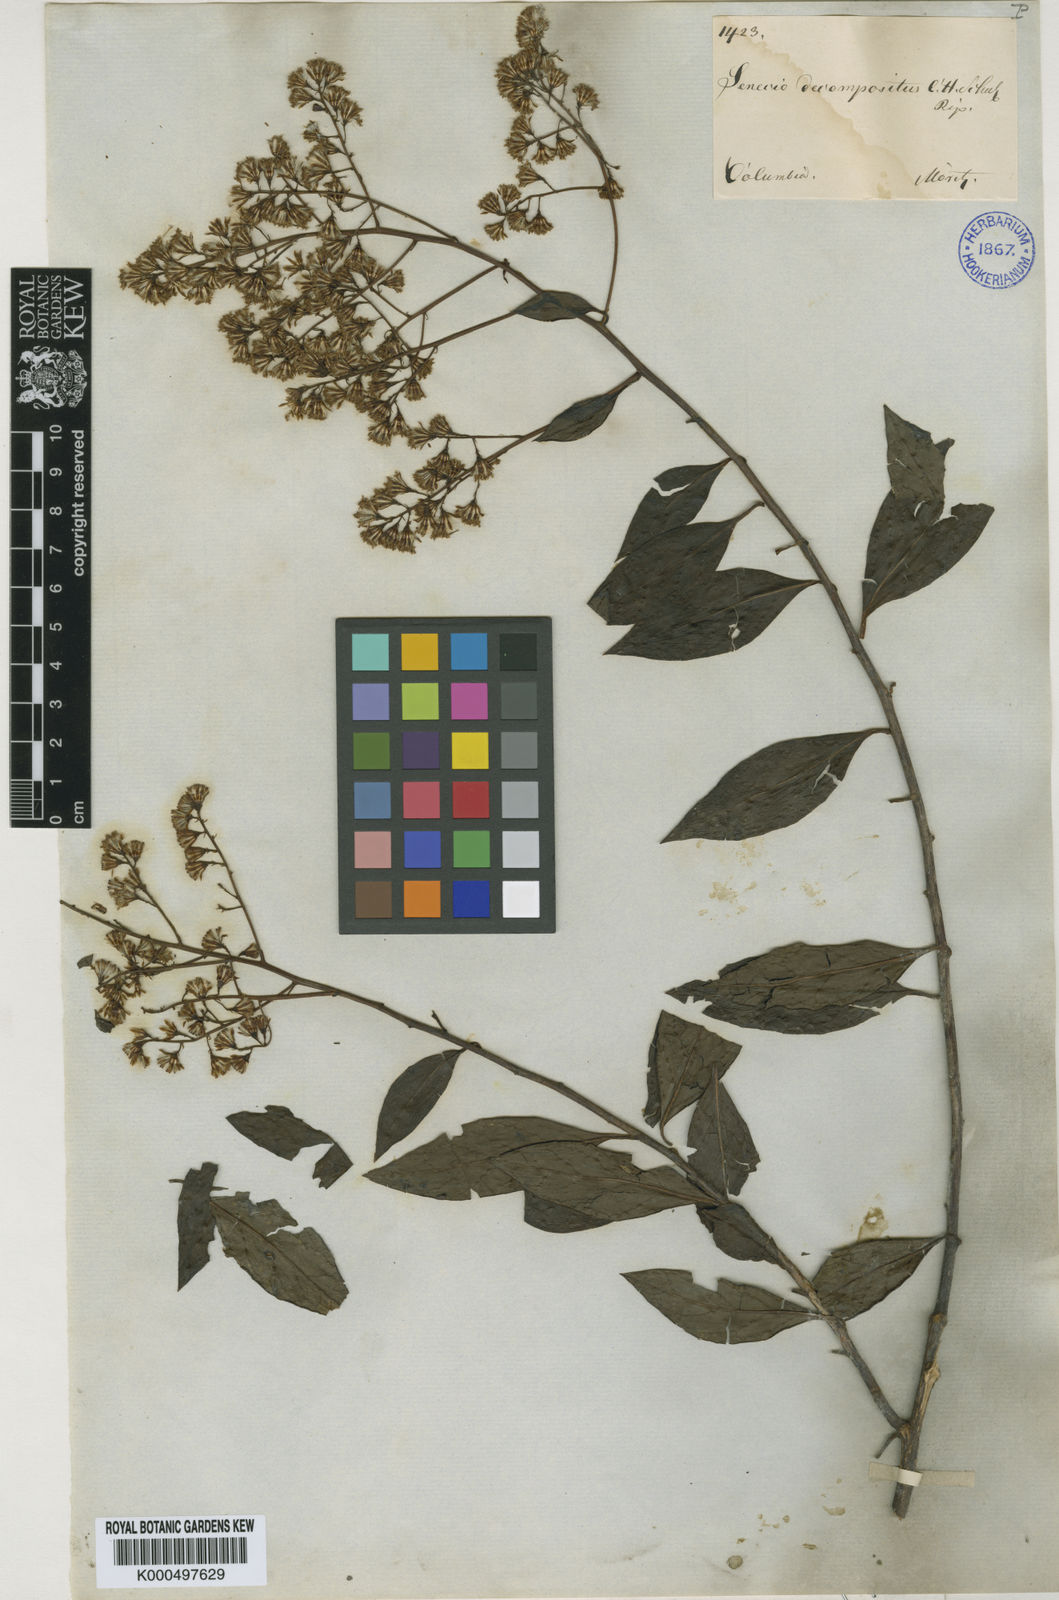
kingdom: Plantae
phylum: Tracheophyta
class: Magnoliopsida
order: Asterales
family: Asteraceae
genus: Pentacalia
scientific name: Pentacalia decomposita
